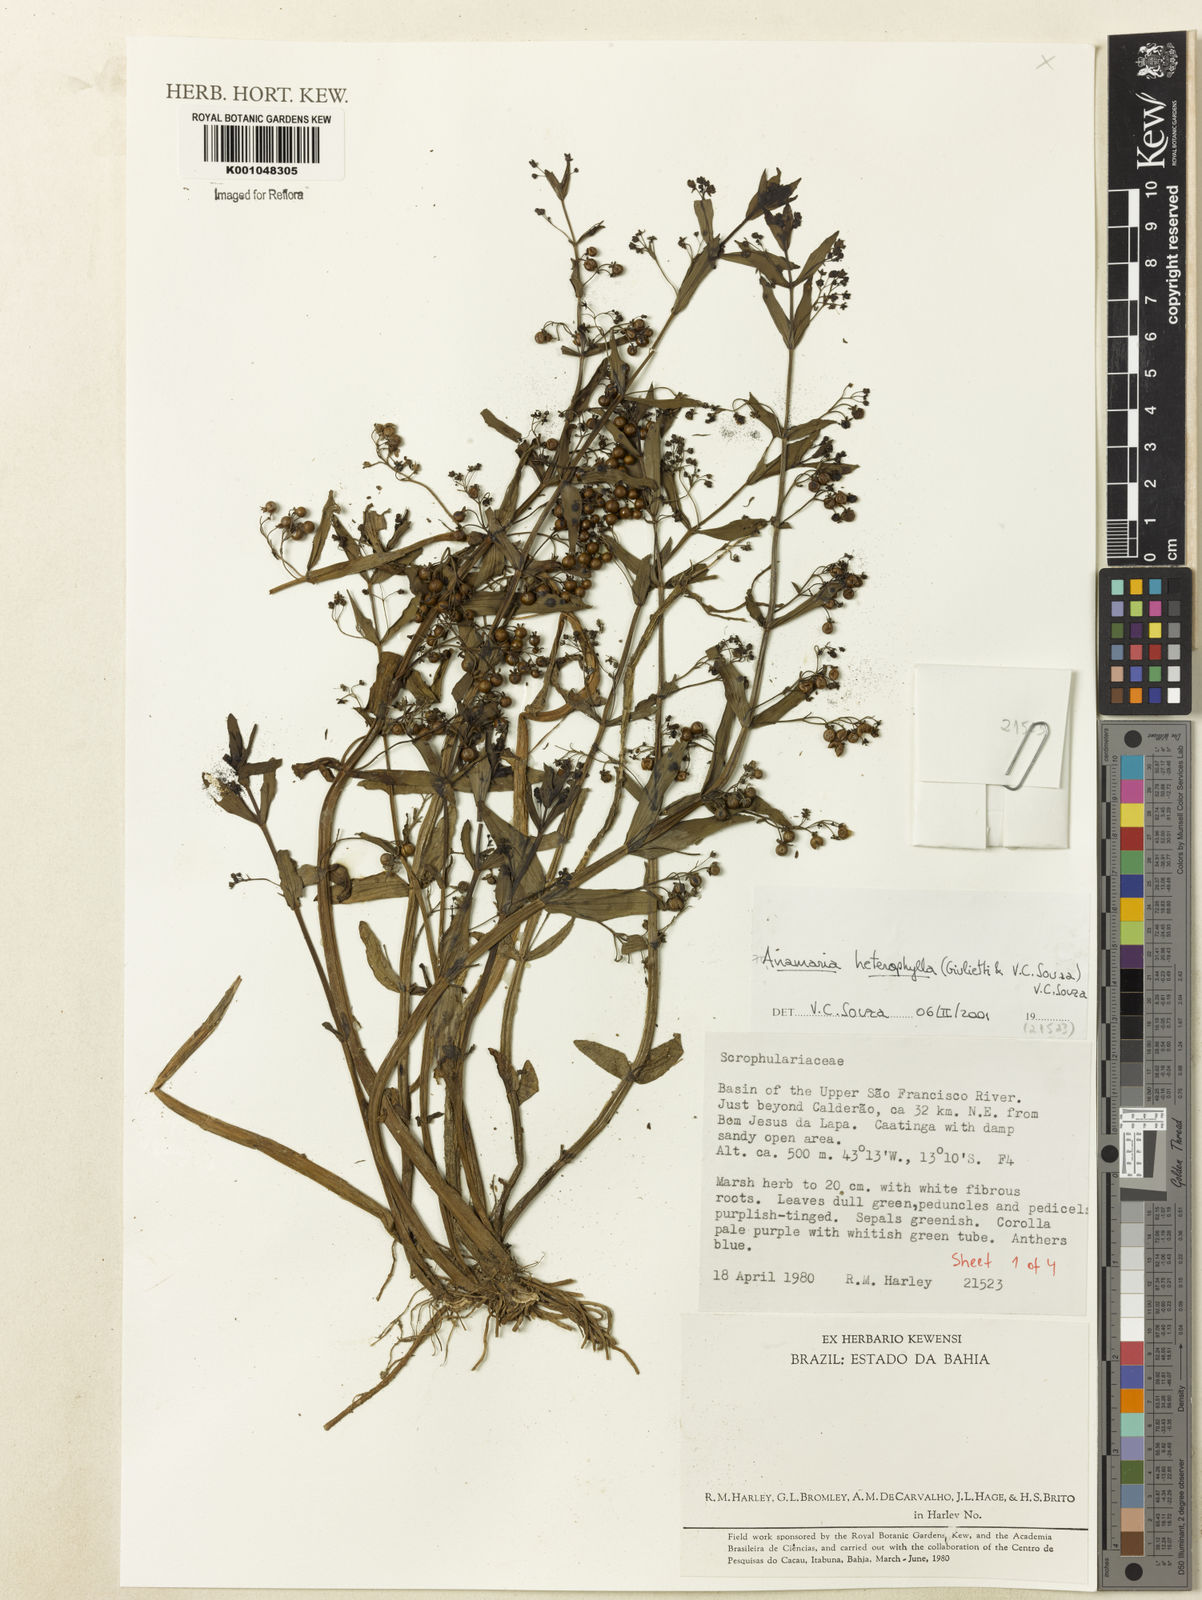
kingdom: Plantae
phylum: Tracheophyta
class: Magnoliopsida
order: Lamiales
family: Plantaginaceae
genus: Anamaria
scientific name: Anamaria heterophylla
